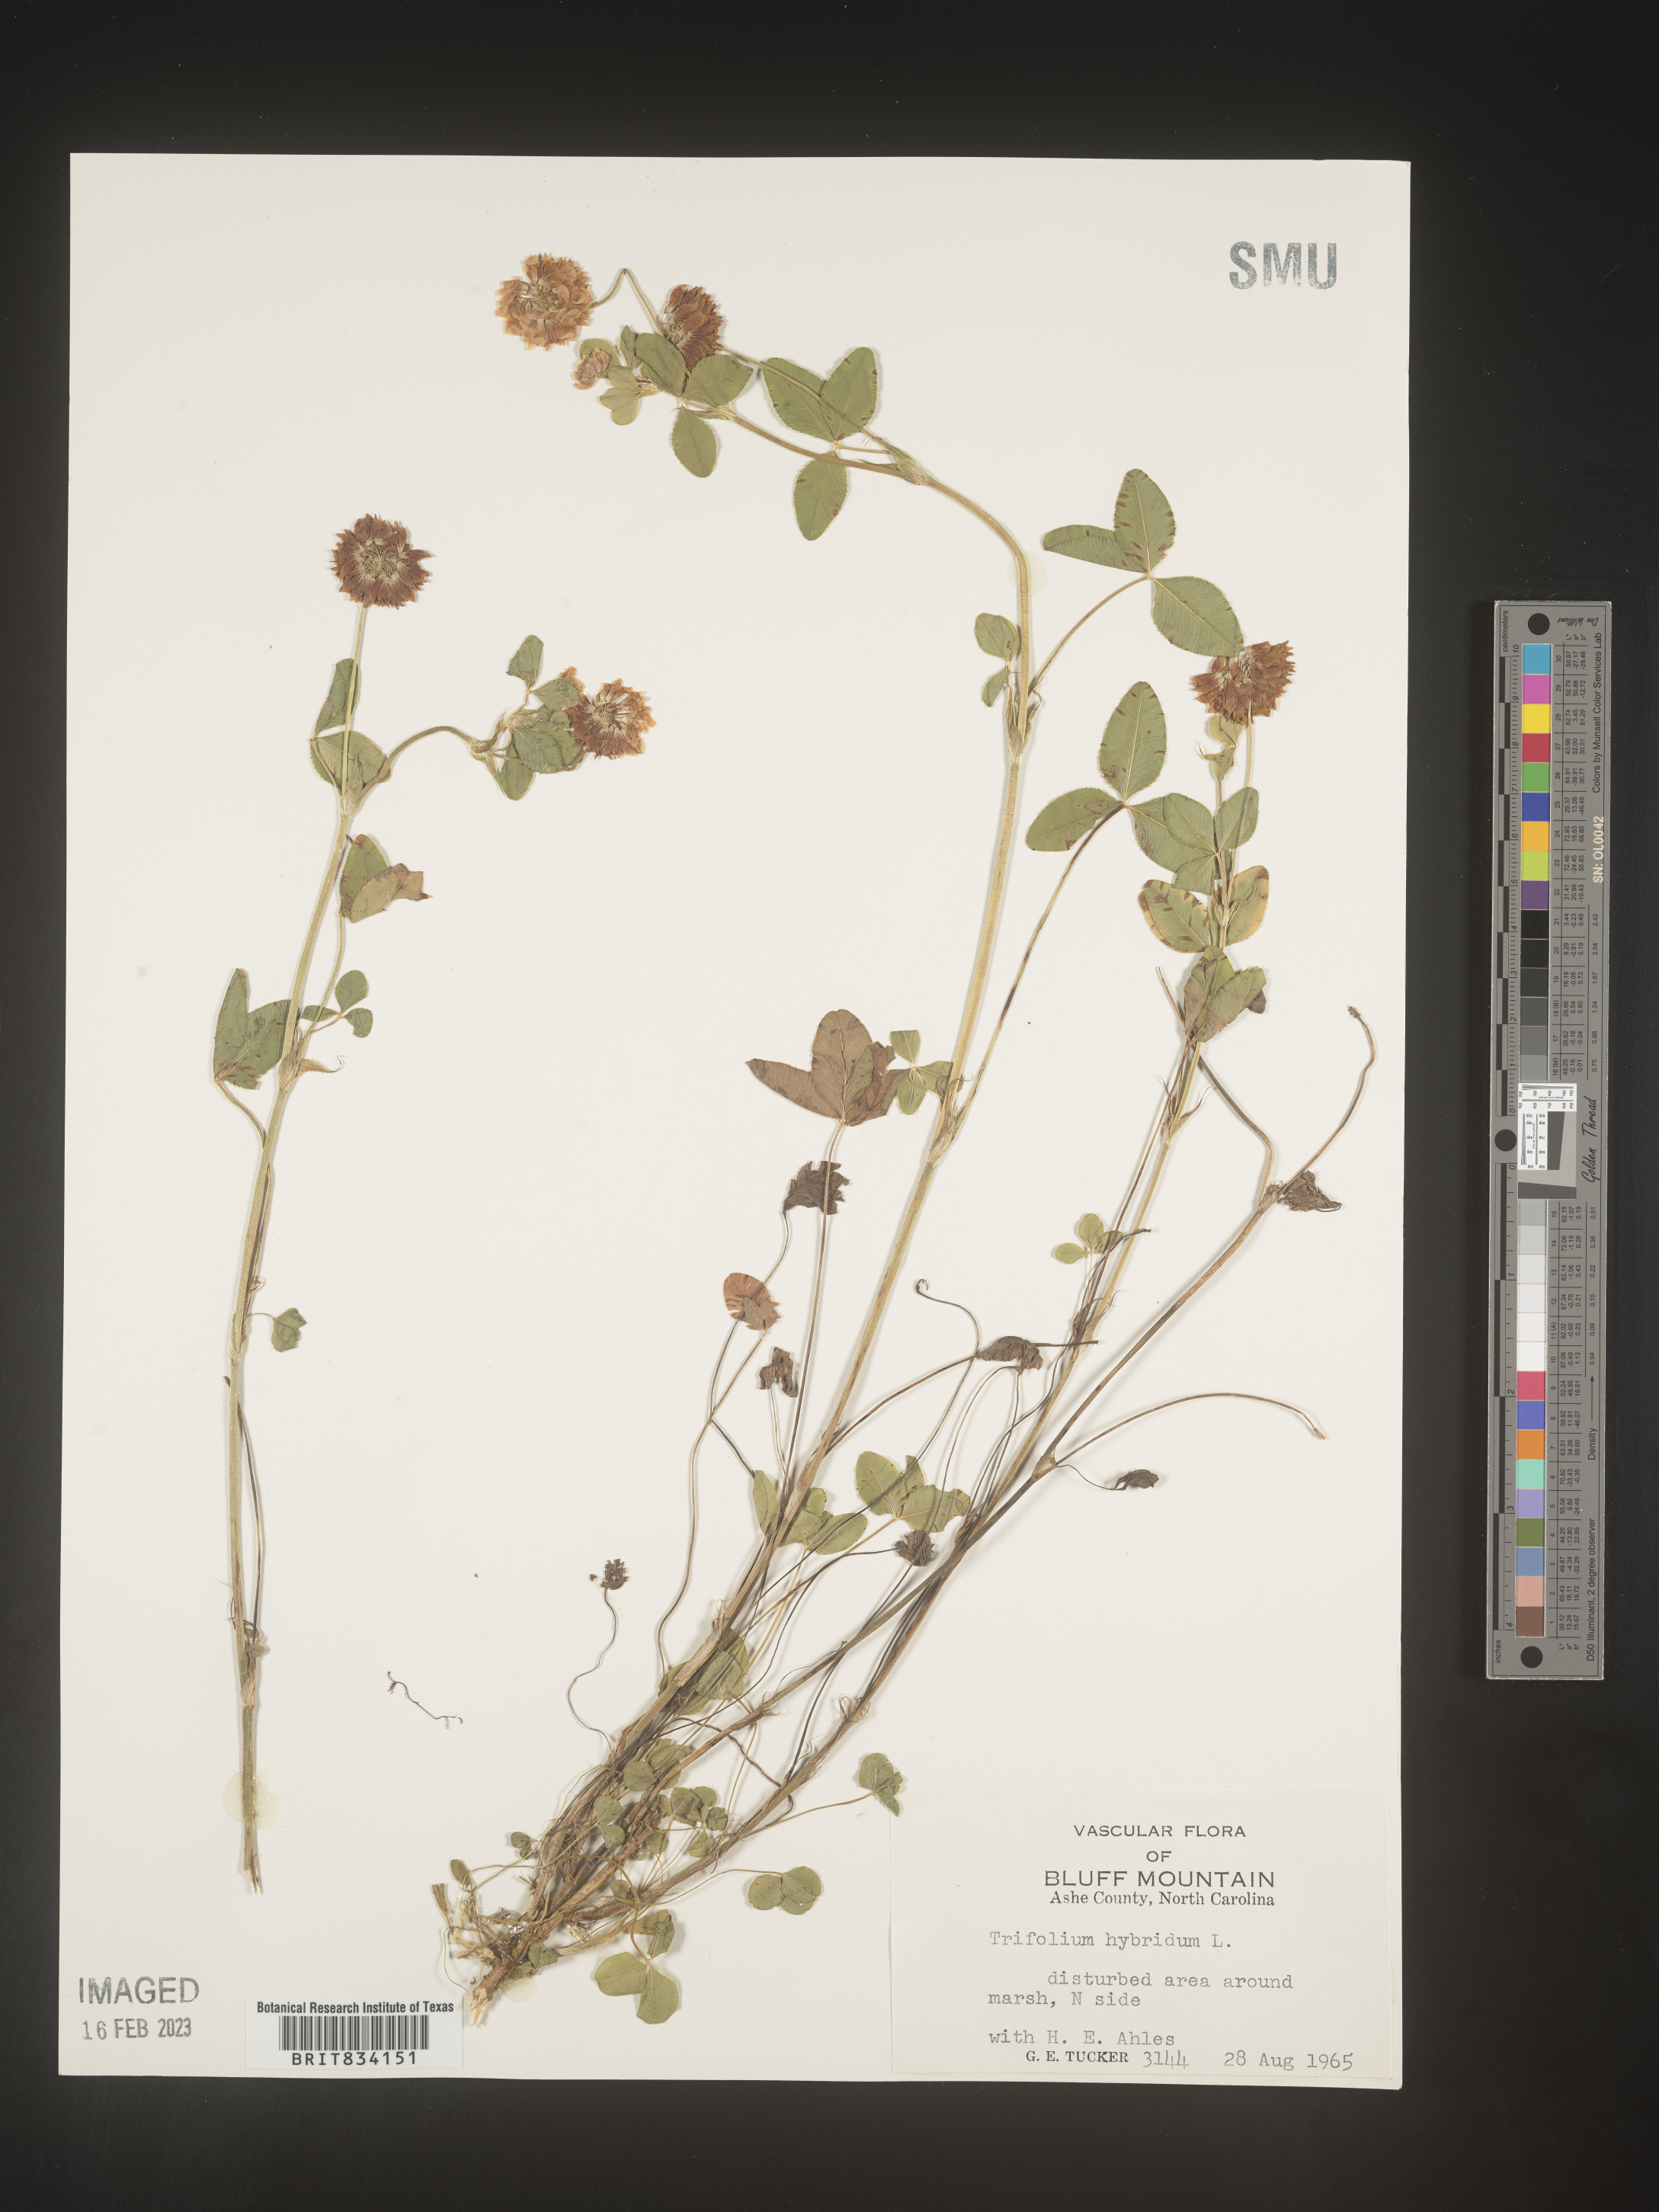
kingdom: Plantae
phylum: Tracheophyta
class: Magnoliopsida
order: Fabales
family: Fabaceae
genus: Trifolium
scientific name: Trifolium hybridum
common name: Alsike clover
